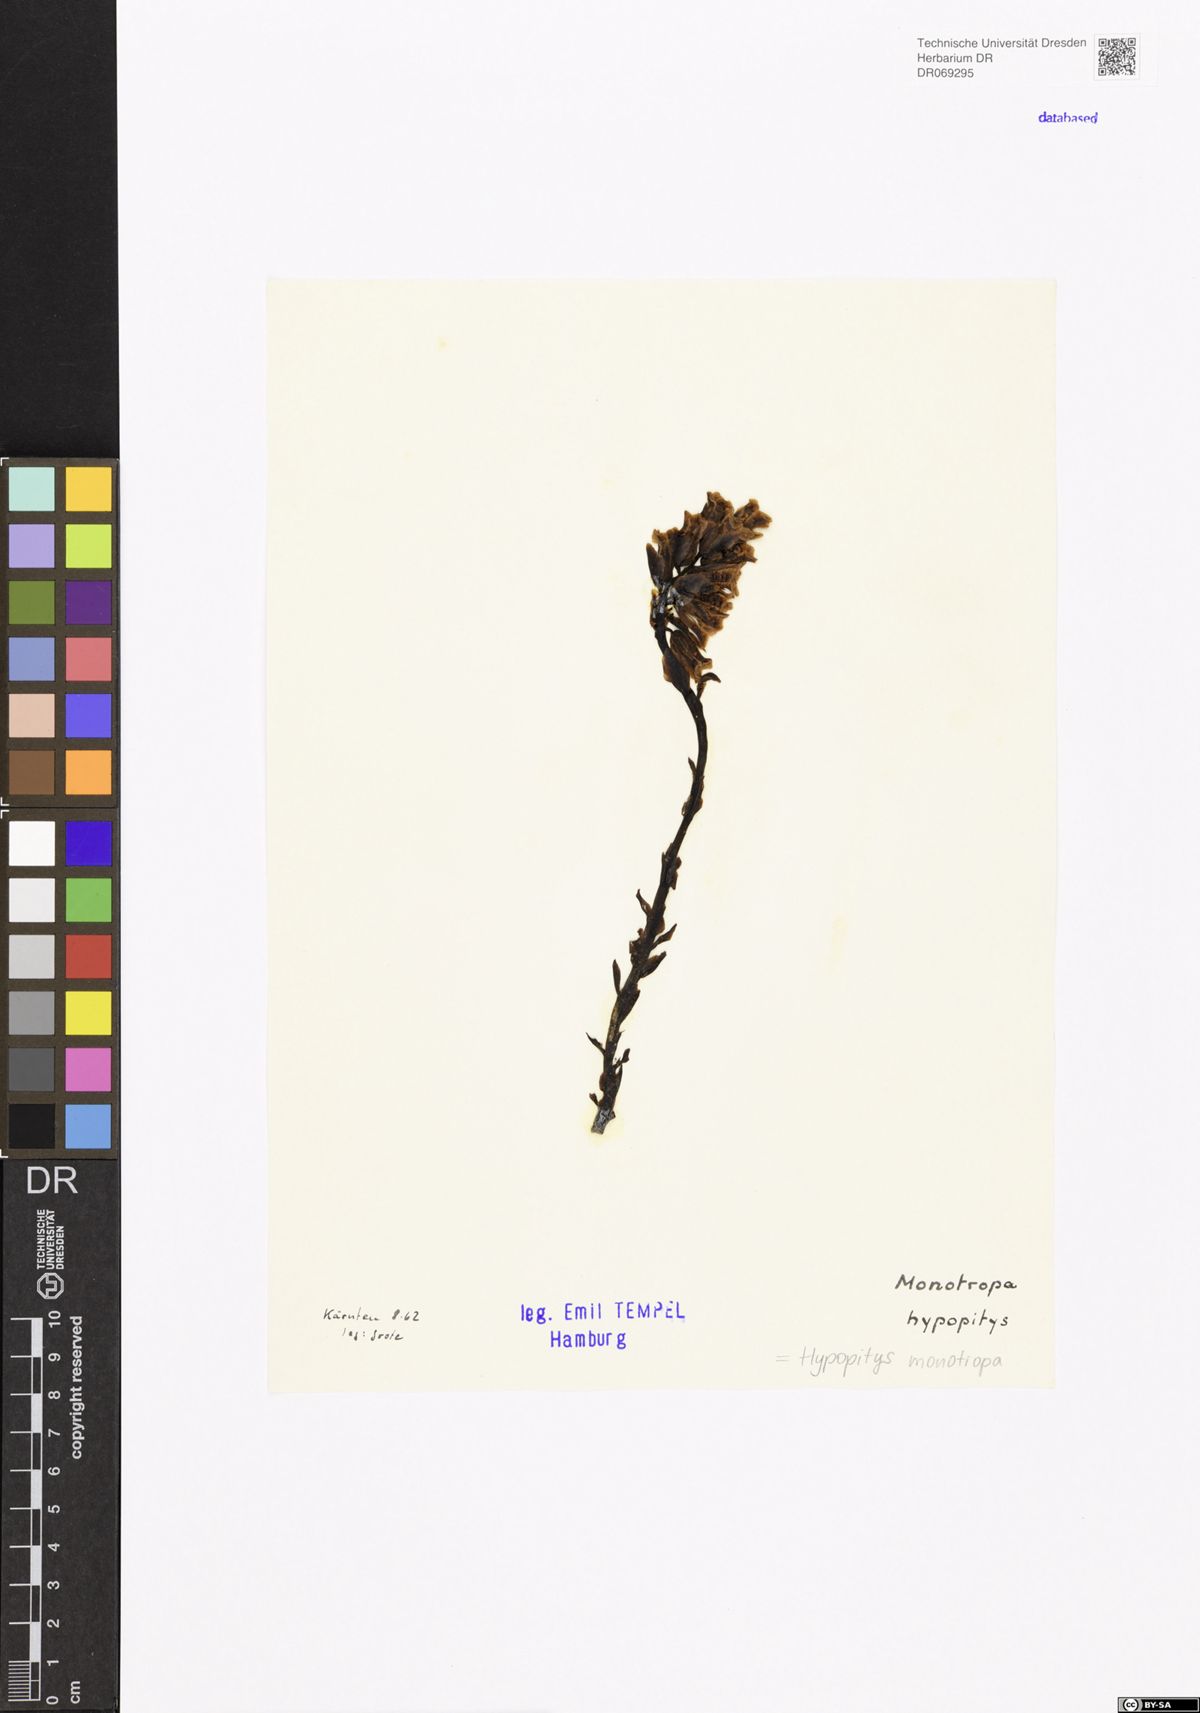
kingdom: Plantae
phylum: Tracheophyta
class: Magnoliopsida
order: Ericales
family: Ericaceae
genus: Hypopitys
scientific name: Hypopitys monotropa
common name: Yellow bird's-nest
